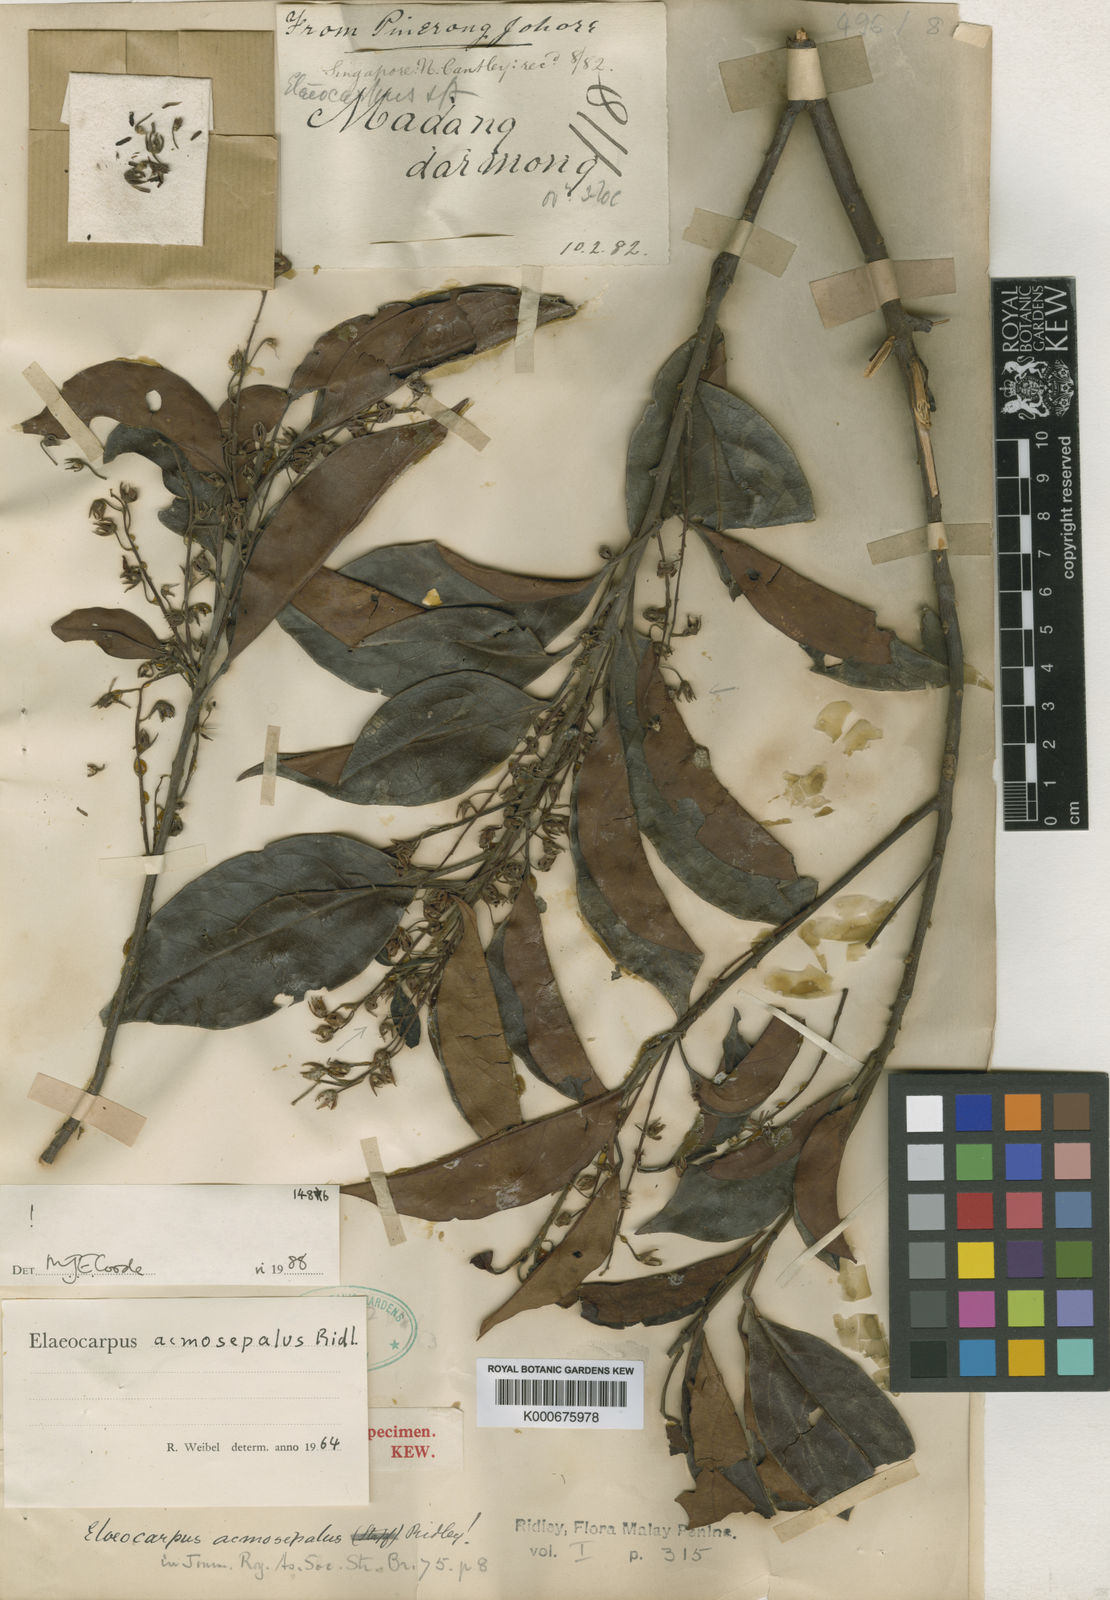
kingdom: Plantae
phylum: Tracheophyta
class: Magnoliopsida
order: Oxalidales
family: Elaeocarpaceae
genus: Elaeocarpus
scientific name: Elaeocarpus acmosepalus
